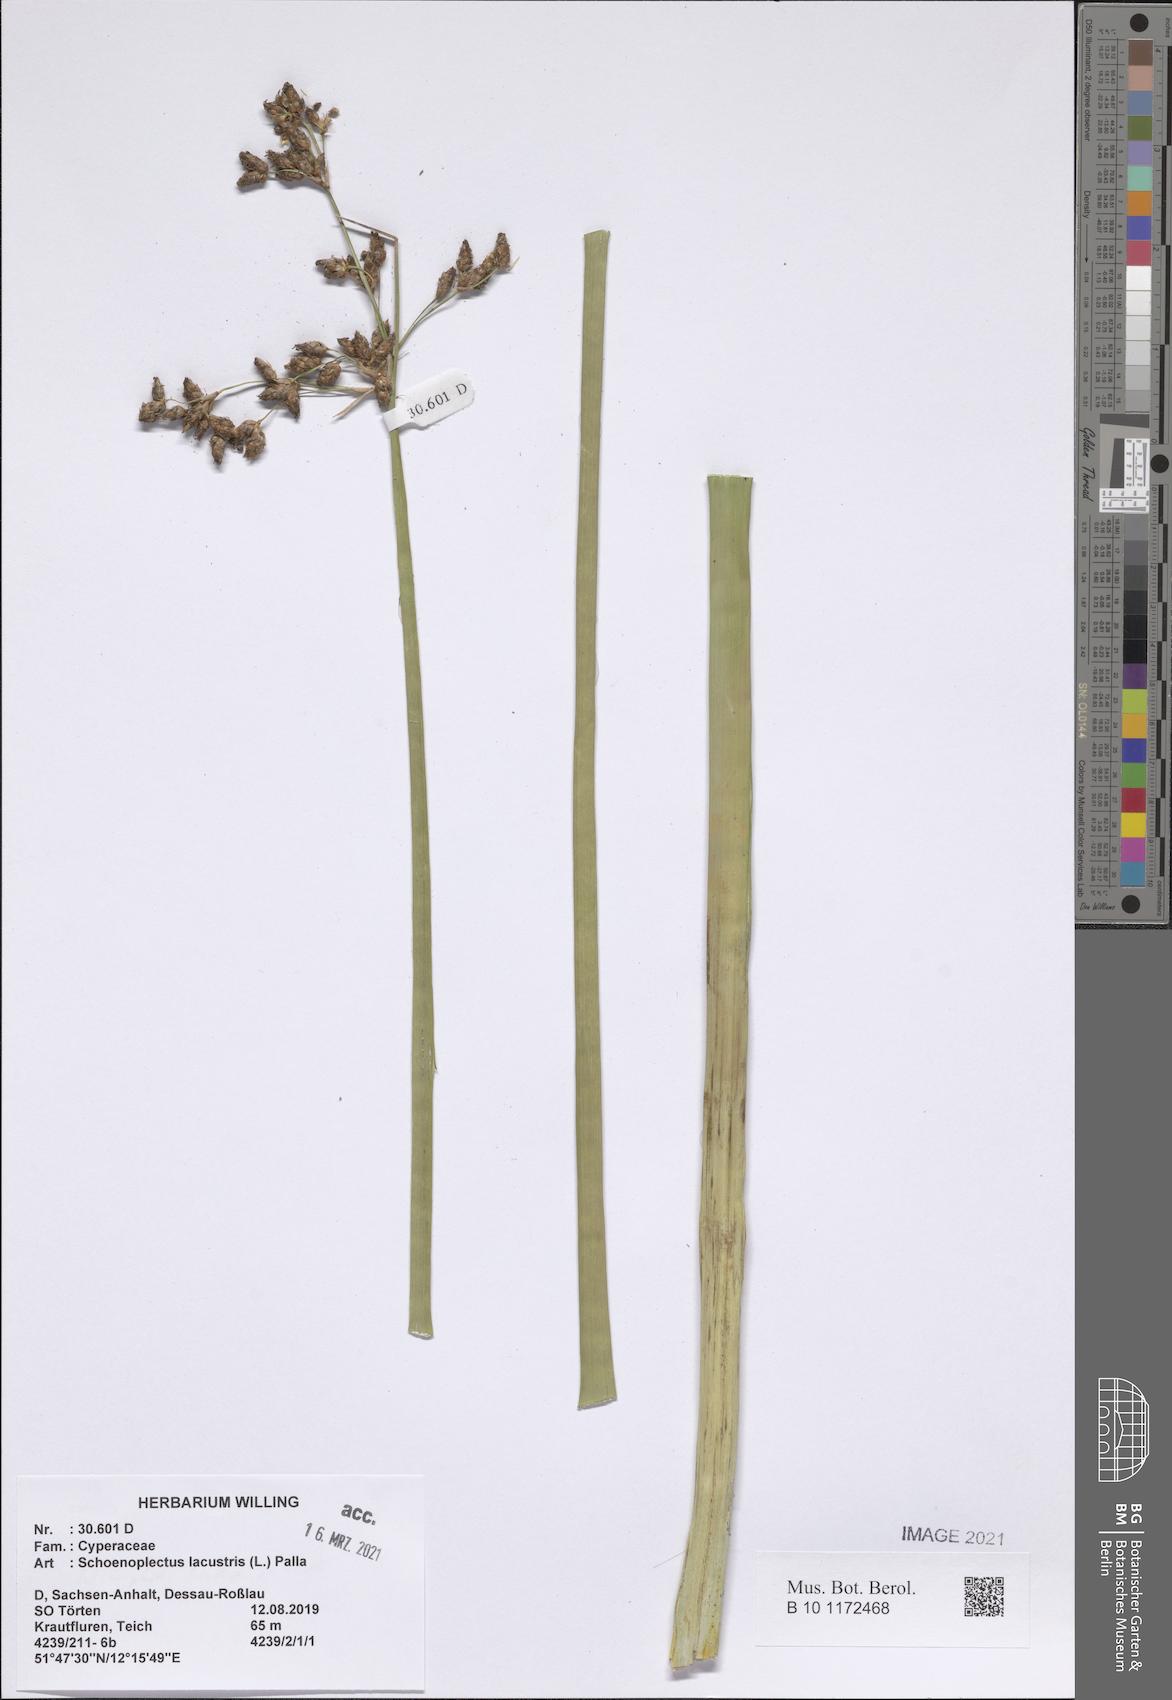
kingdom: Plantae
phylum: Tracheophyta
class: Liliopsida
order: Poales
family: Cyperaceae
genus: Schoenoplectus
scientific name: Schoenoplectus lacustris
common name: Common club-rush
